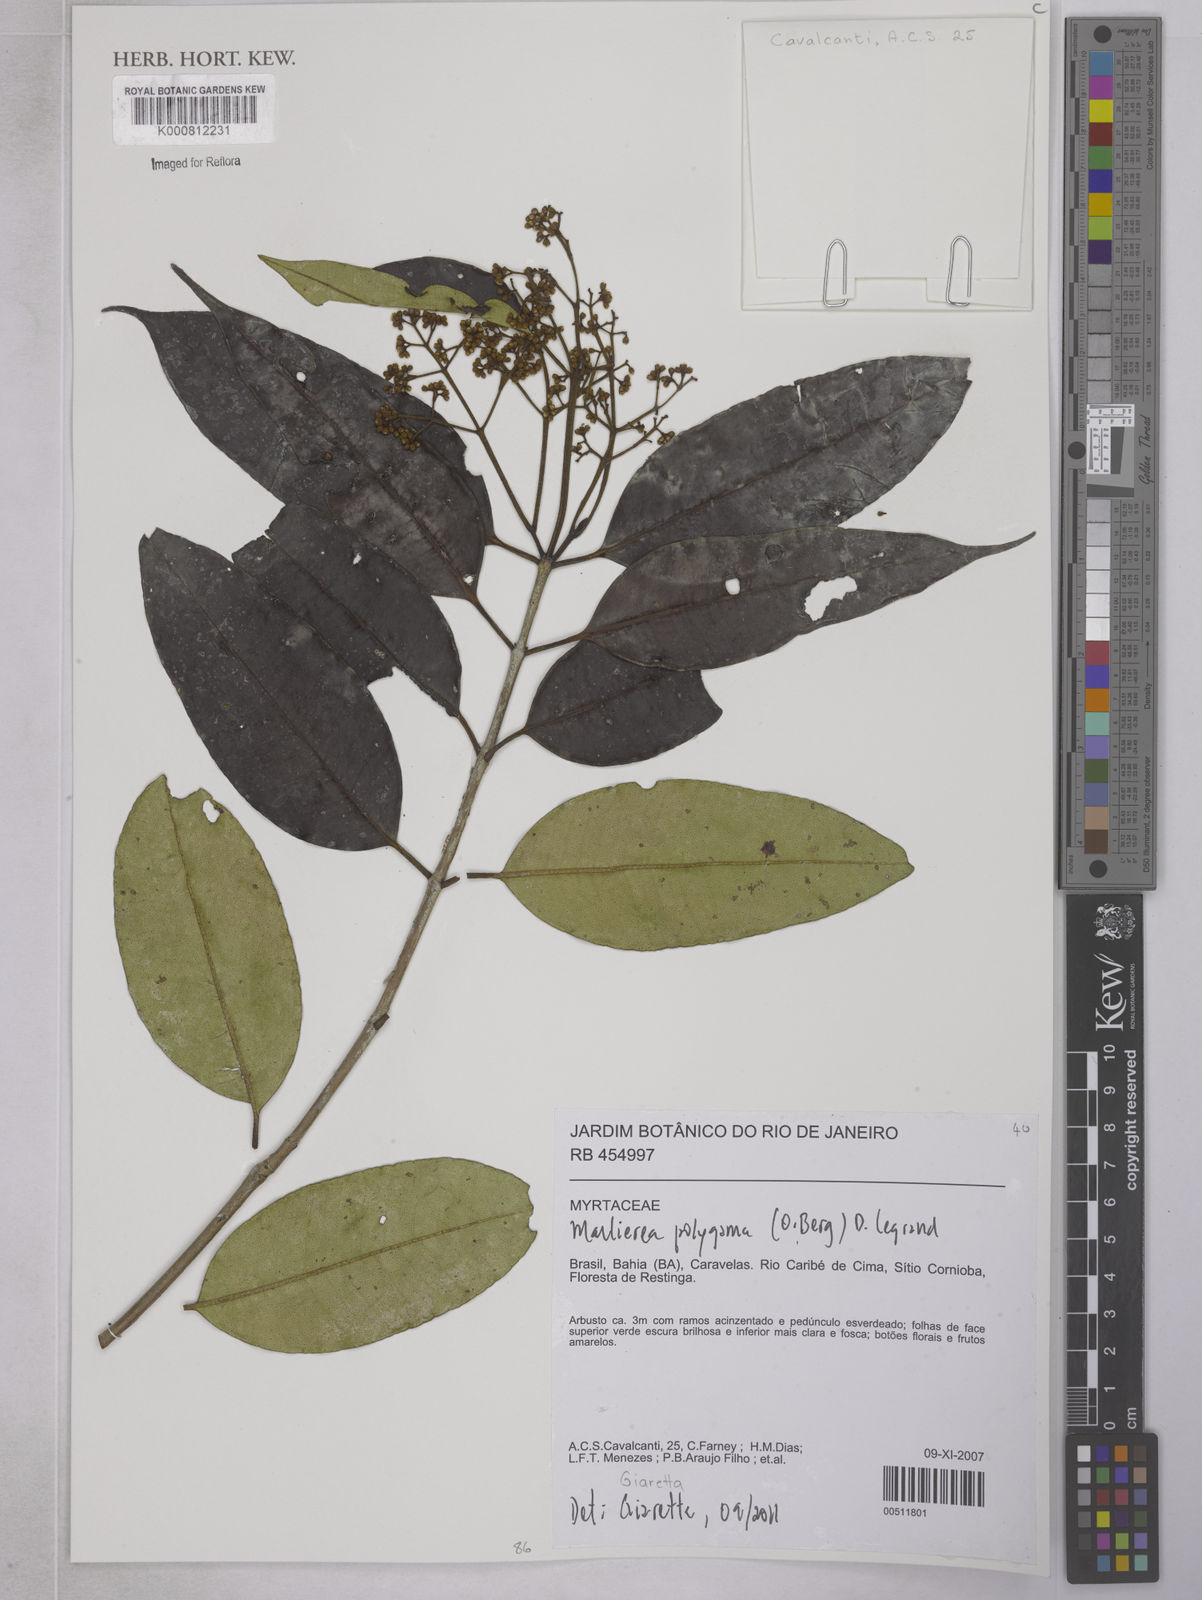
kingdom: Plantae
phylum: Tracheophyta
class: Magnoliopsida
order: Myrtales
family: Myrtaceae
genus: Myrcia
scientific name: Myrcia polygama
